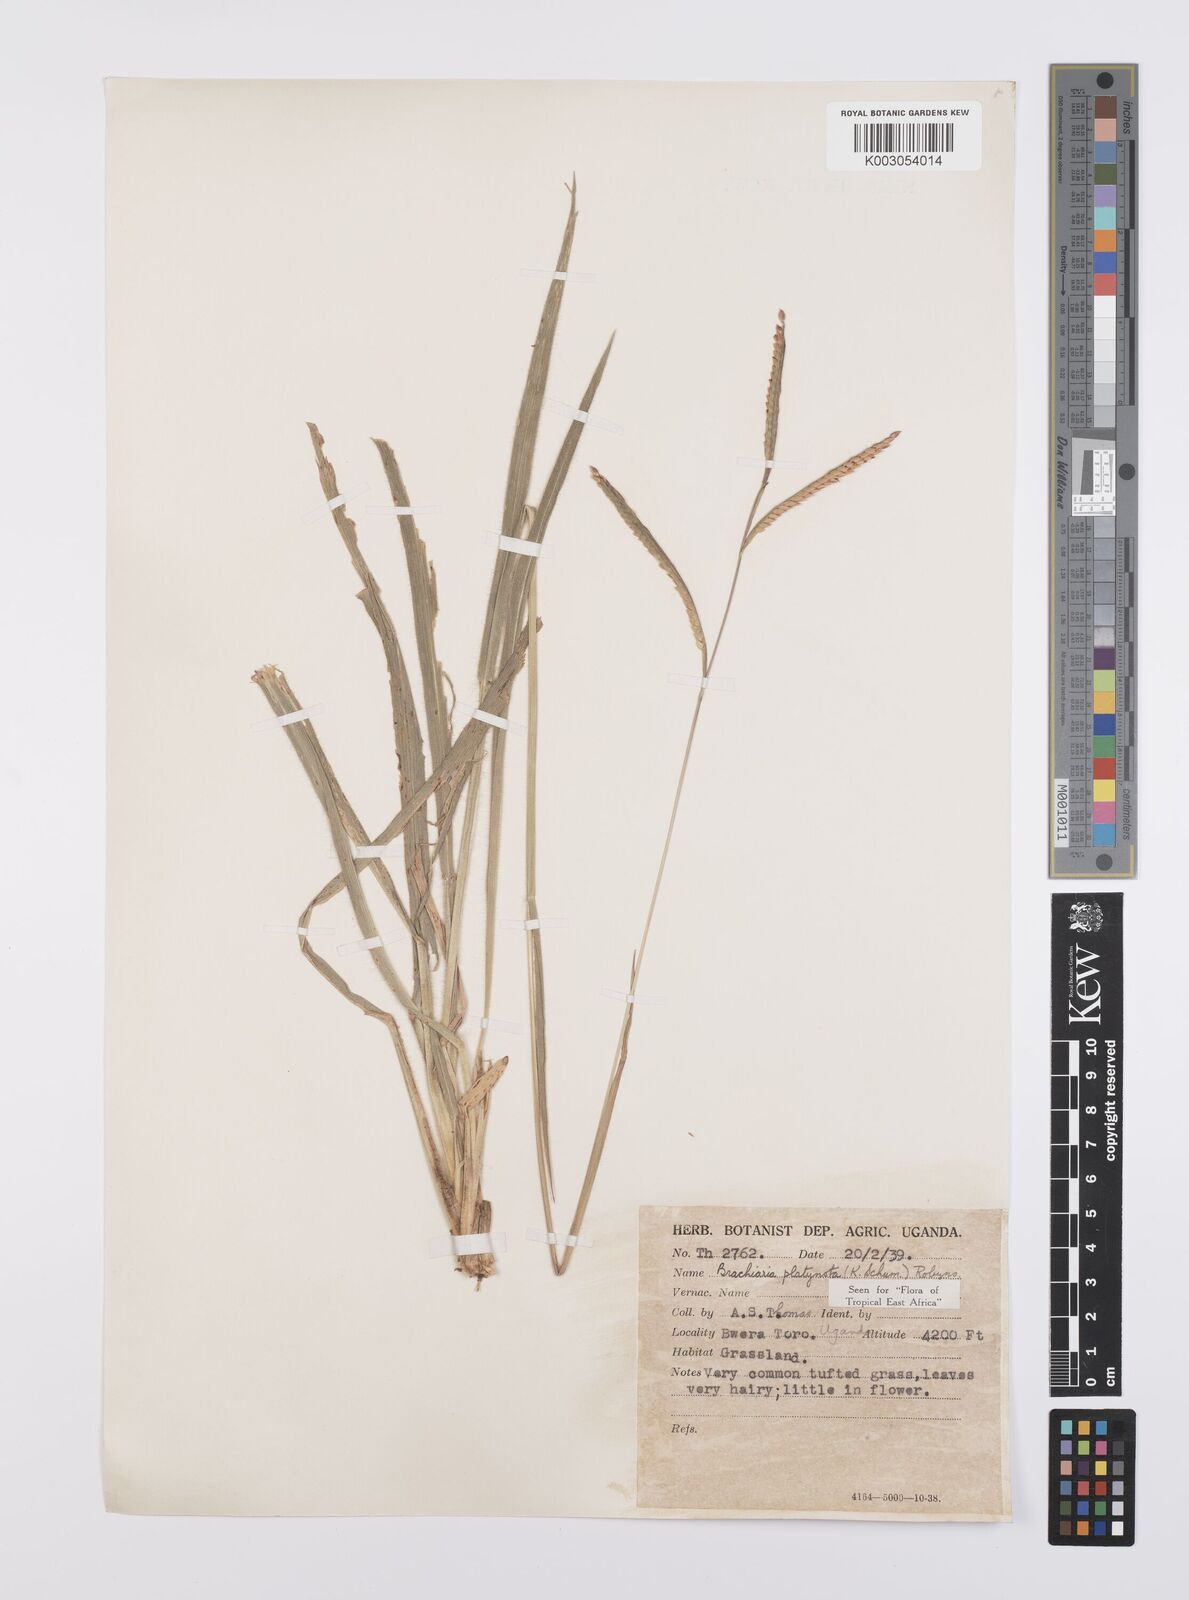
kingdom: Plantae
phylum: Tracheophyta
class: Liliopsida
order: Poales
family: Poaceae
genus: Urochloa
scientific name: Urochloa platynota
